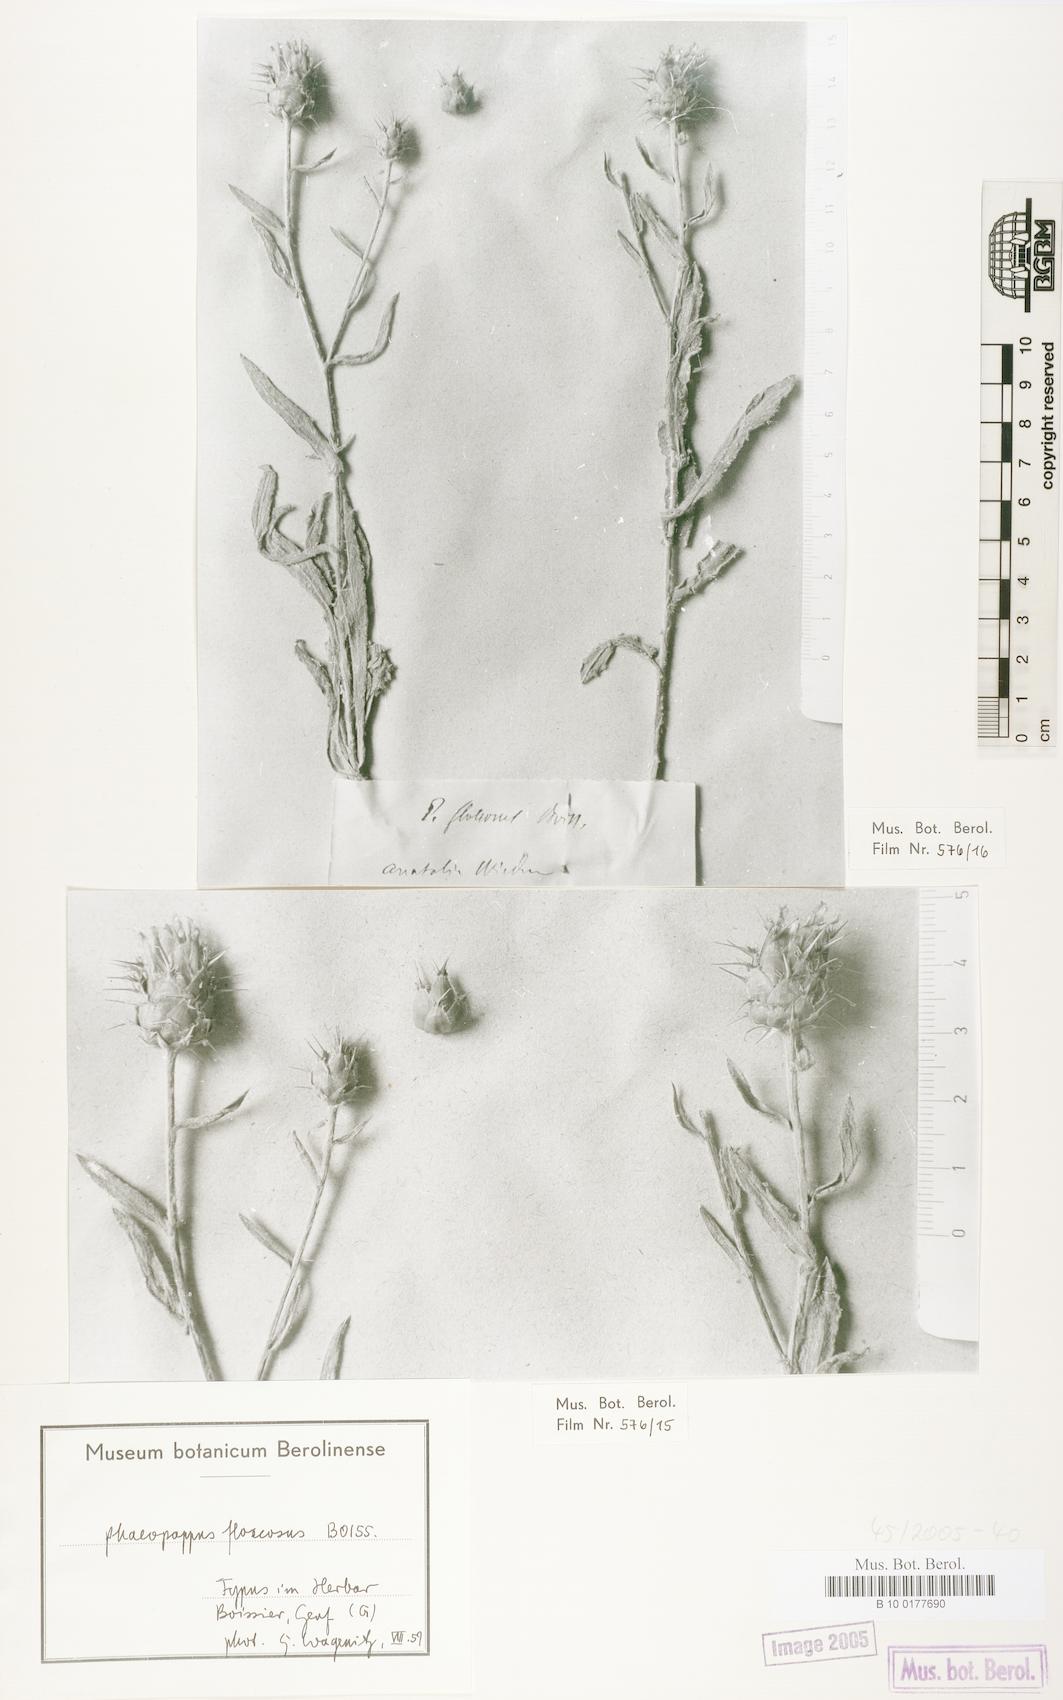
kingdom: Plantae
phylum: Tracheophyta
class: Magnoliopsida
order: Asterales
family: Asteraceae
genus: Centaurea
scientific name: Centaurea kotschyi
